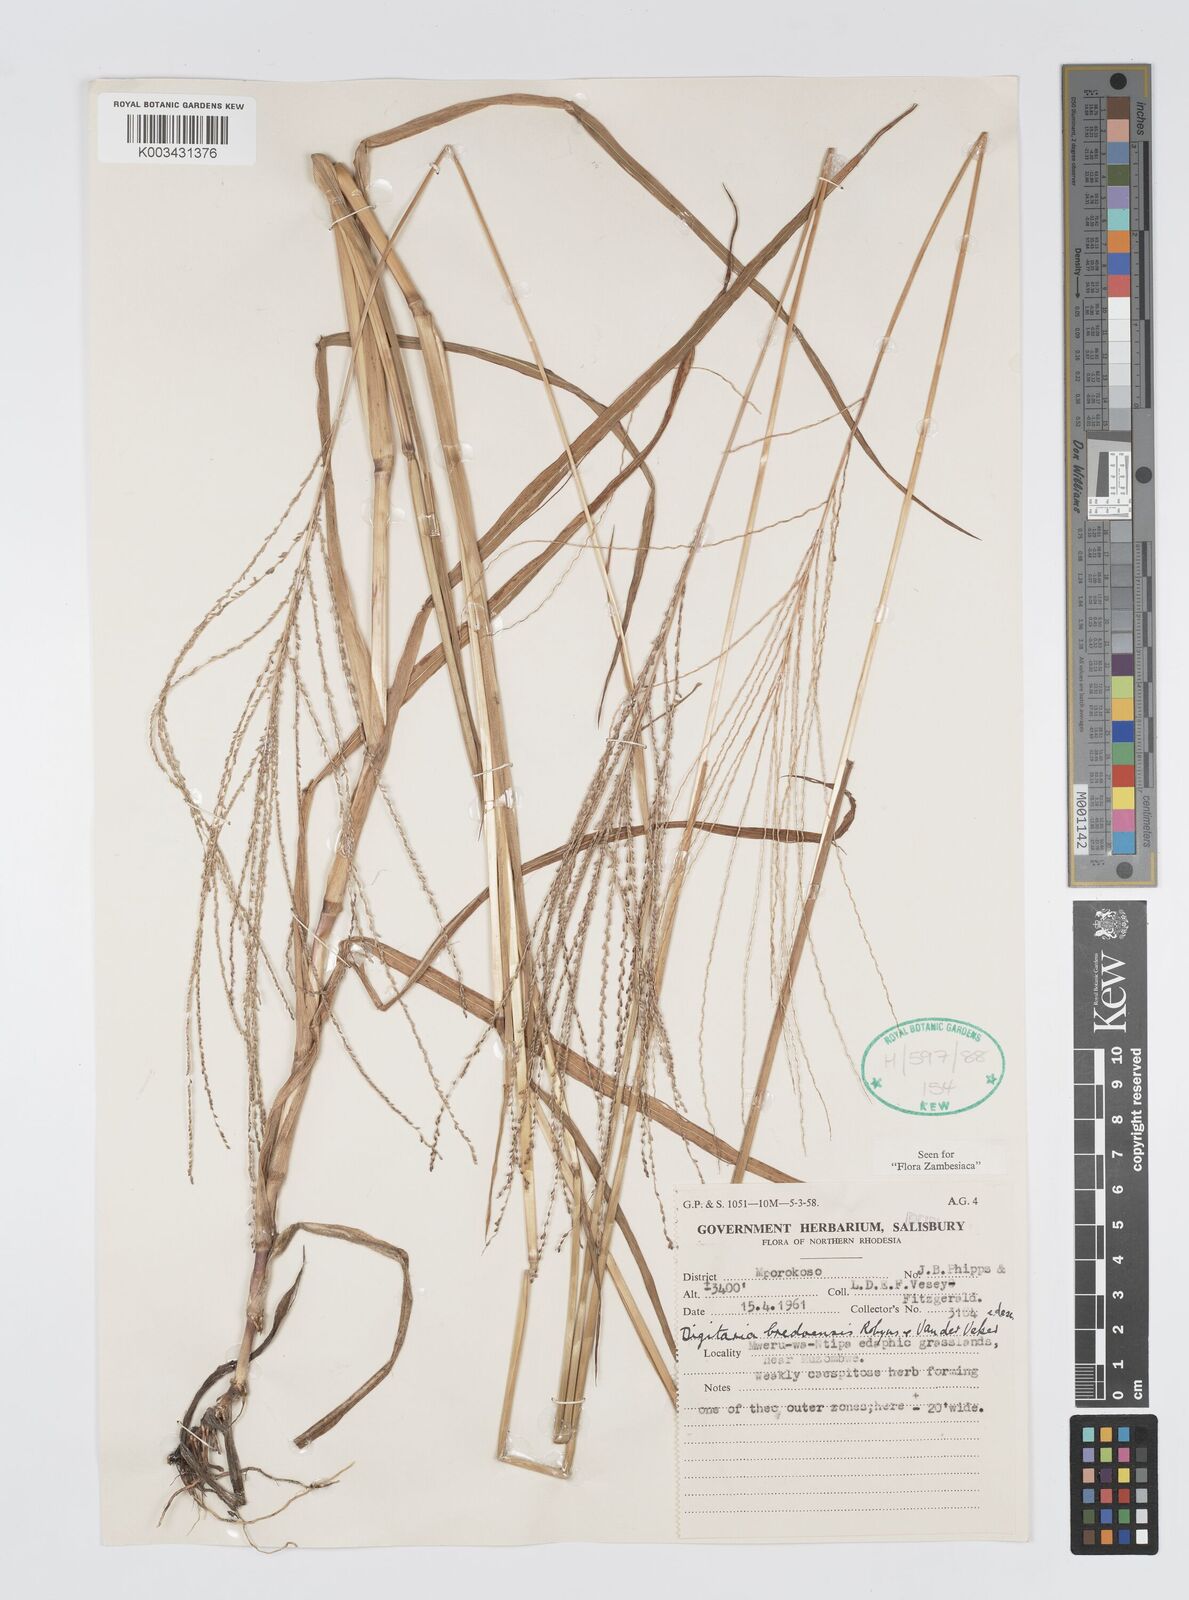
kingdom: Plantae
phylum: Tracheophyta
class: Liliopsida
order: Poales
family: Poaceae
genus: Digitaria
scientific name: Digitaria leptorhachis
